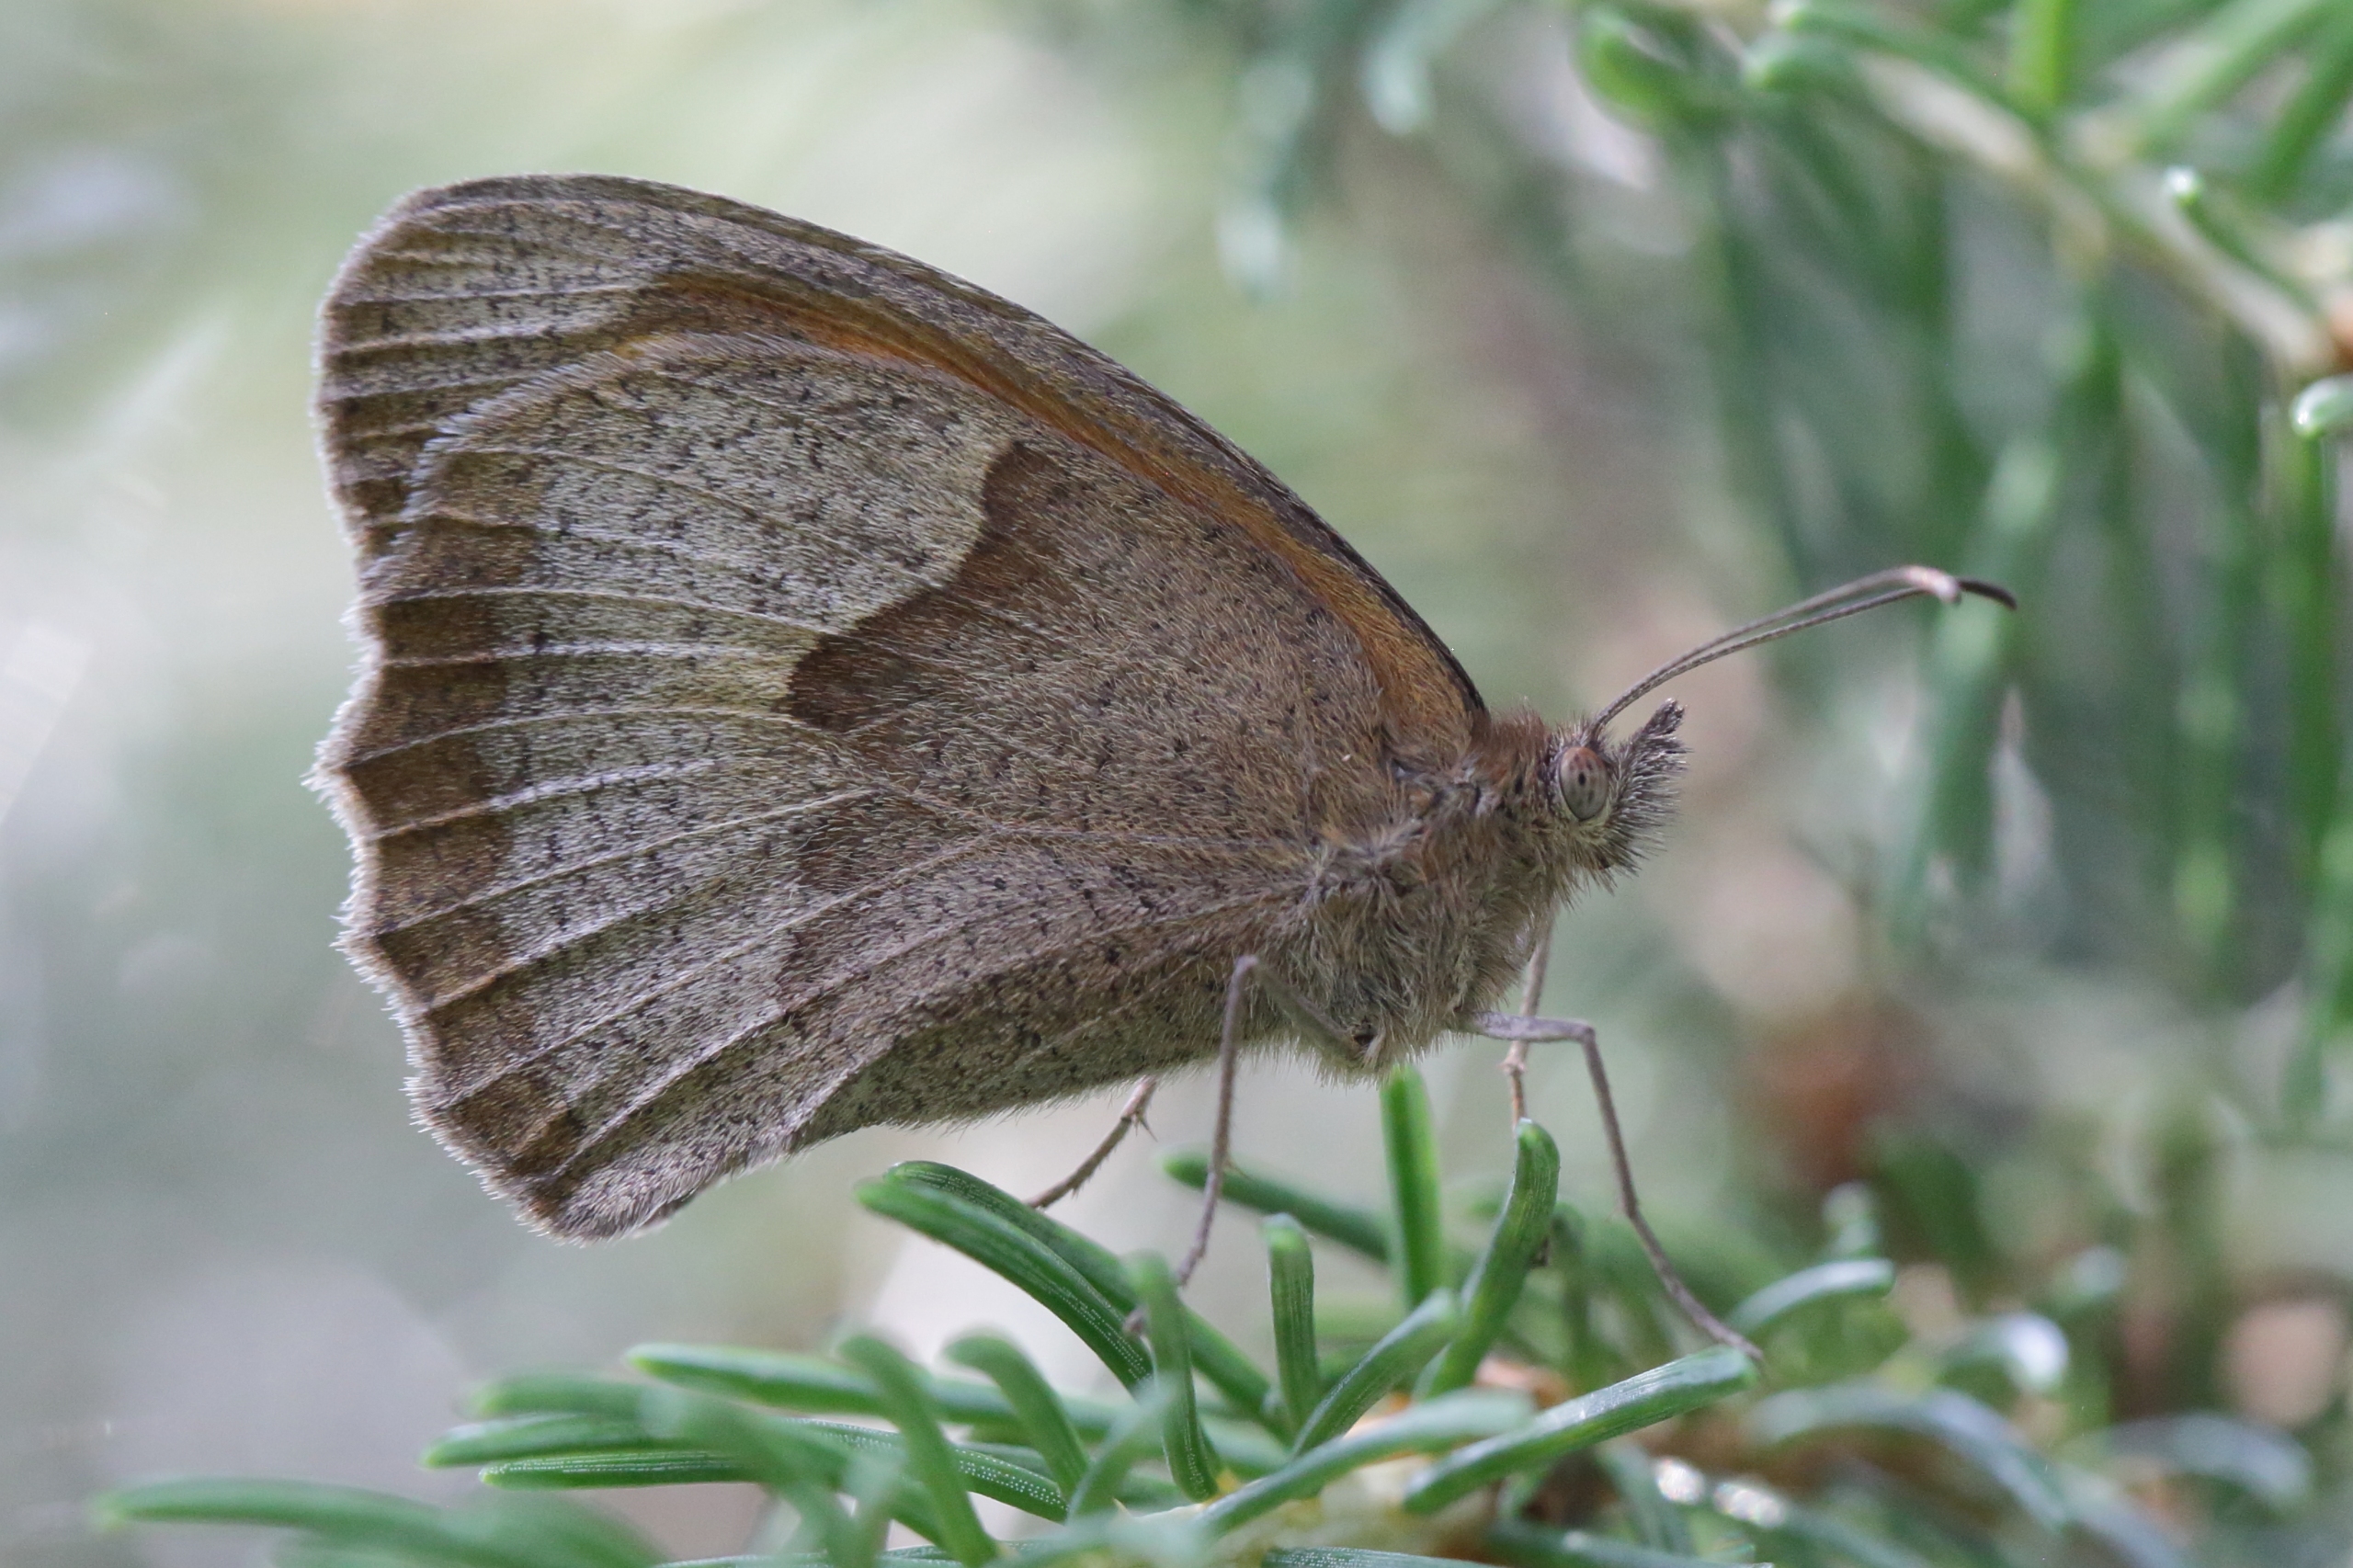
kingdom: Animalia
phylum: Arthropoda
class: Insecta
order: Lepidoptera
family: Nymphalidae
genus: Maniola
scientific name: Maniola jurtina
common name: Græsrandøje
